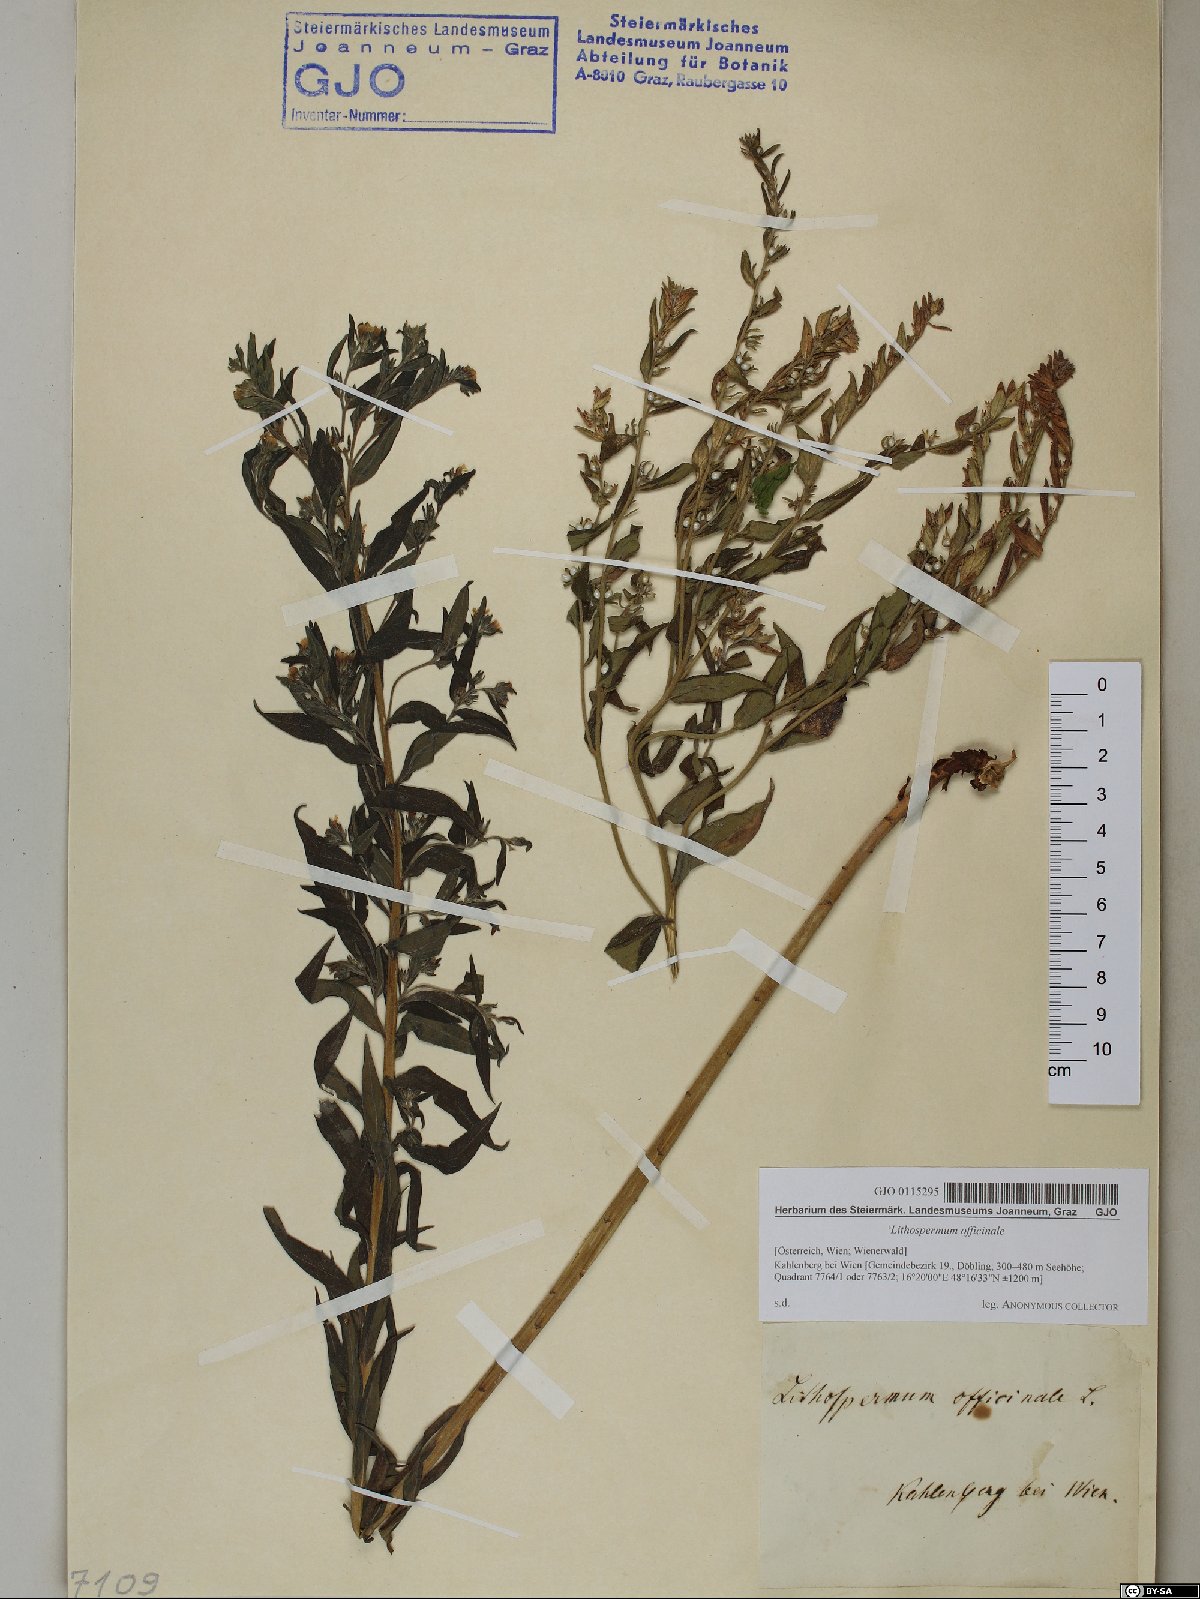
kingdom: Plantae
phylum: Tracheophyta
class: Magnoliopsida
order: Boraginales
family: Boraginaceae
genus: Lithospermum
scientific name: Lithospermum officinale
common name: Common gromwell
